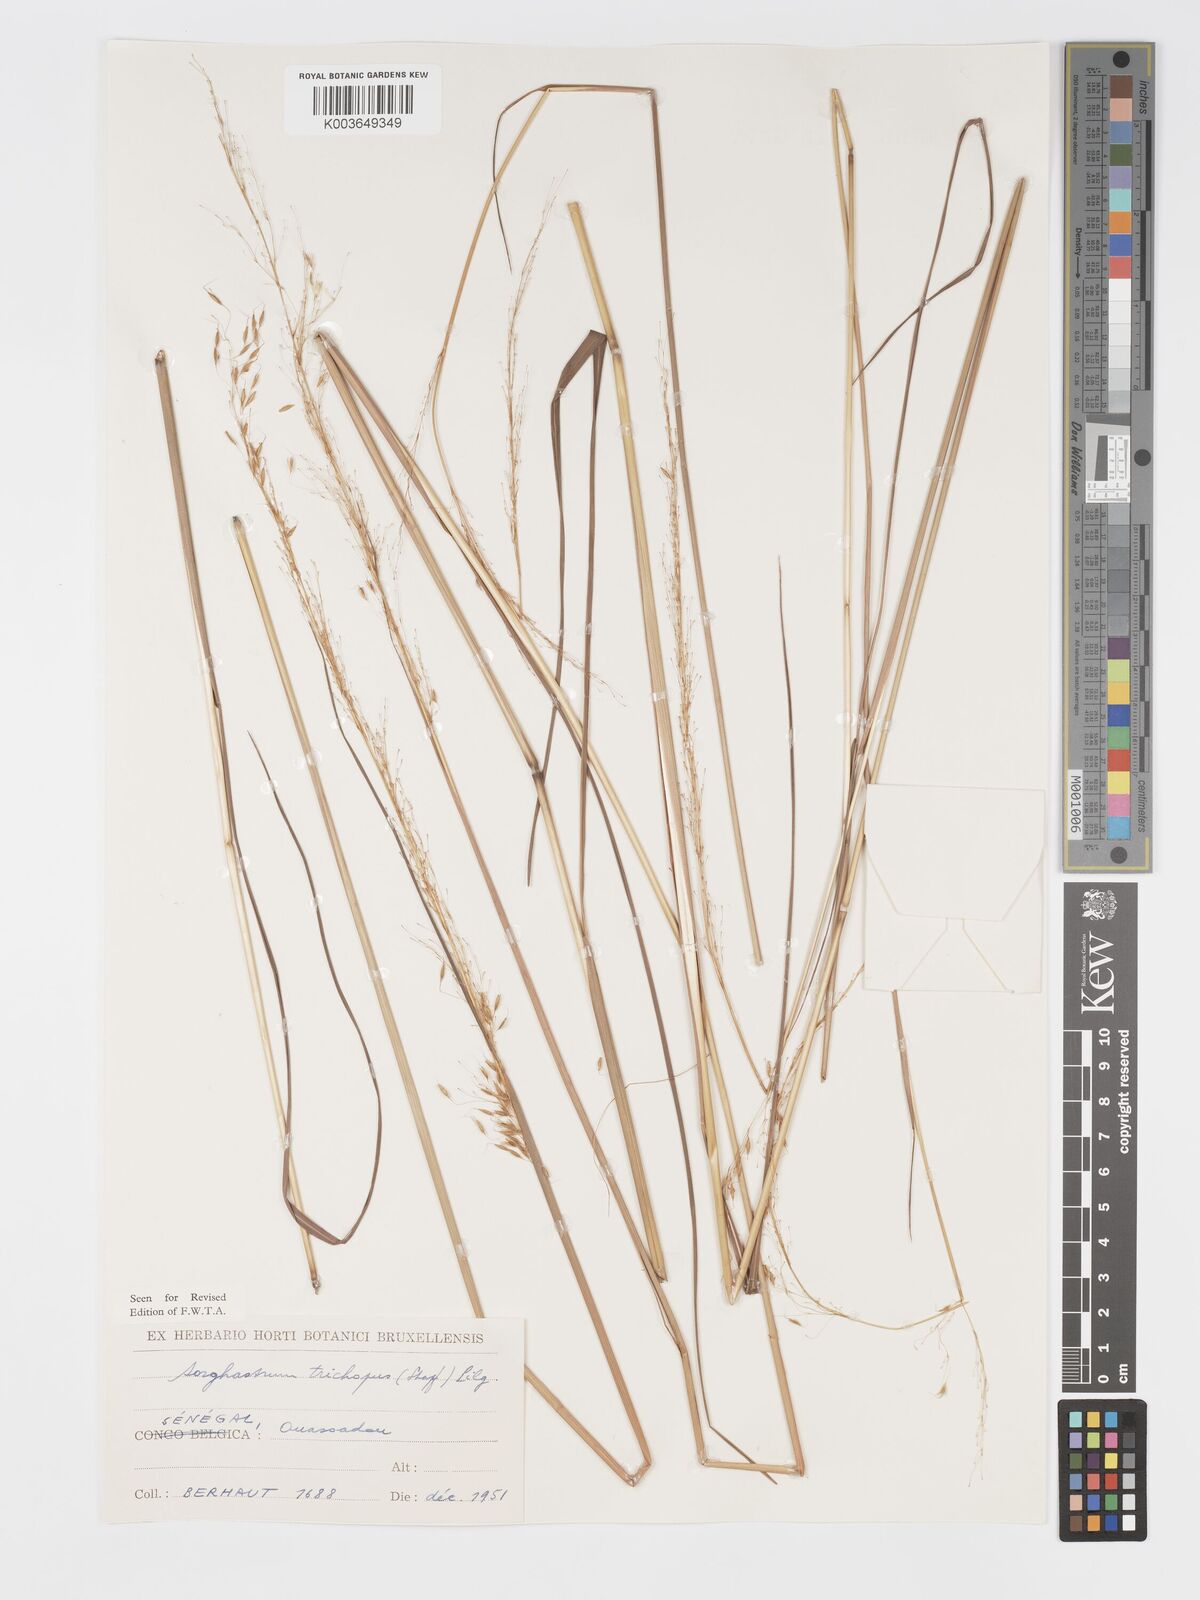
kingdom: Plantae
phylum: Tracheophyta
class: Liliopsida
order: Poales
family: Poaceae
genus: Sorghastrum
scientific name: Sorghastrum stipoides
